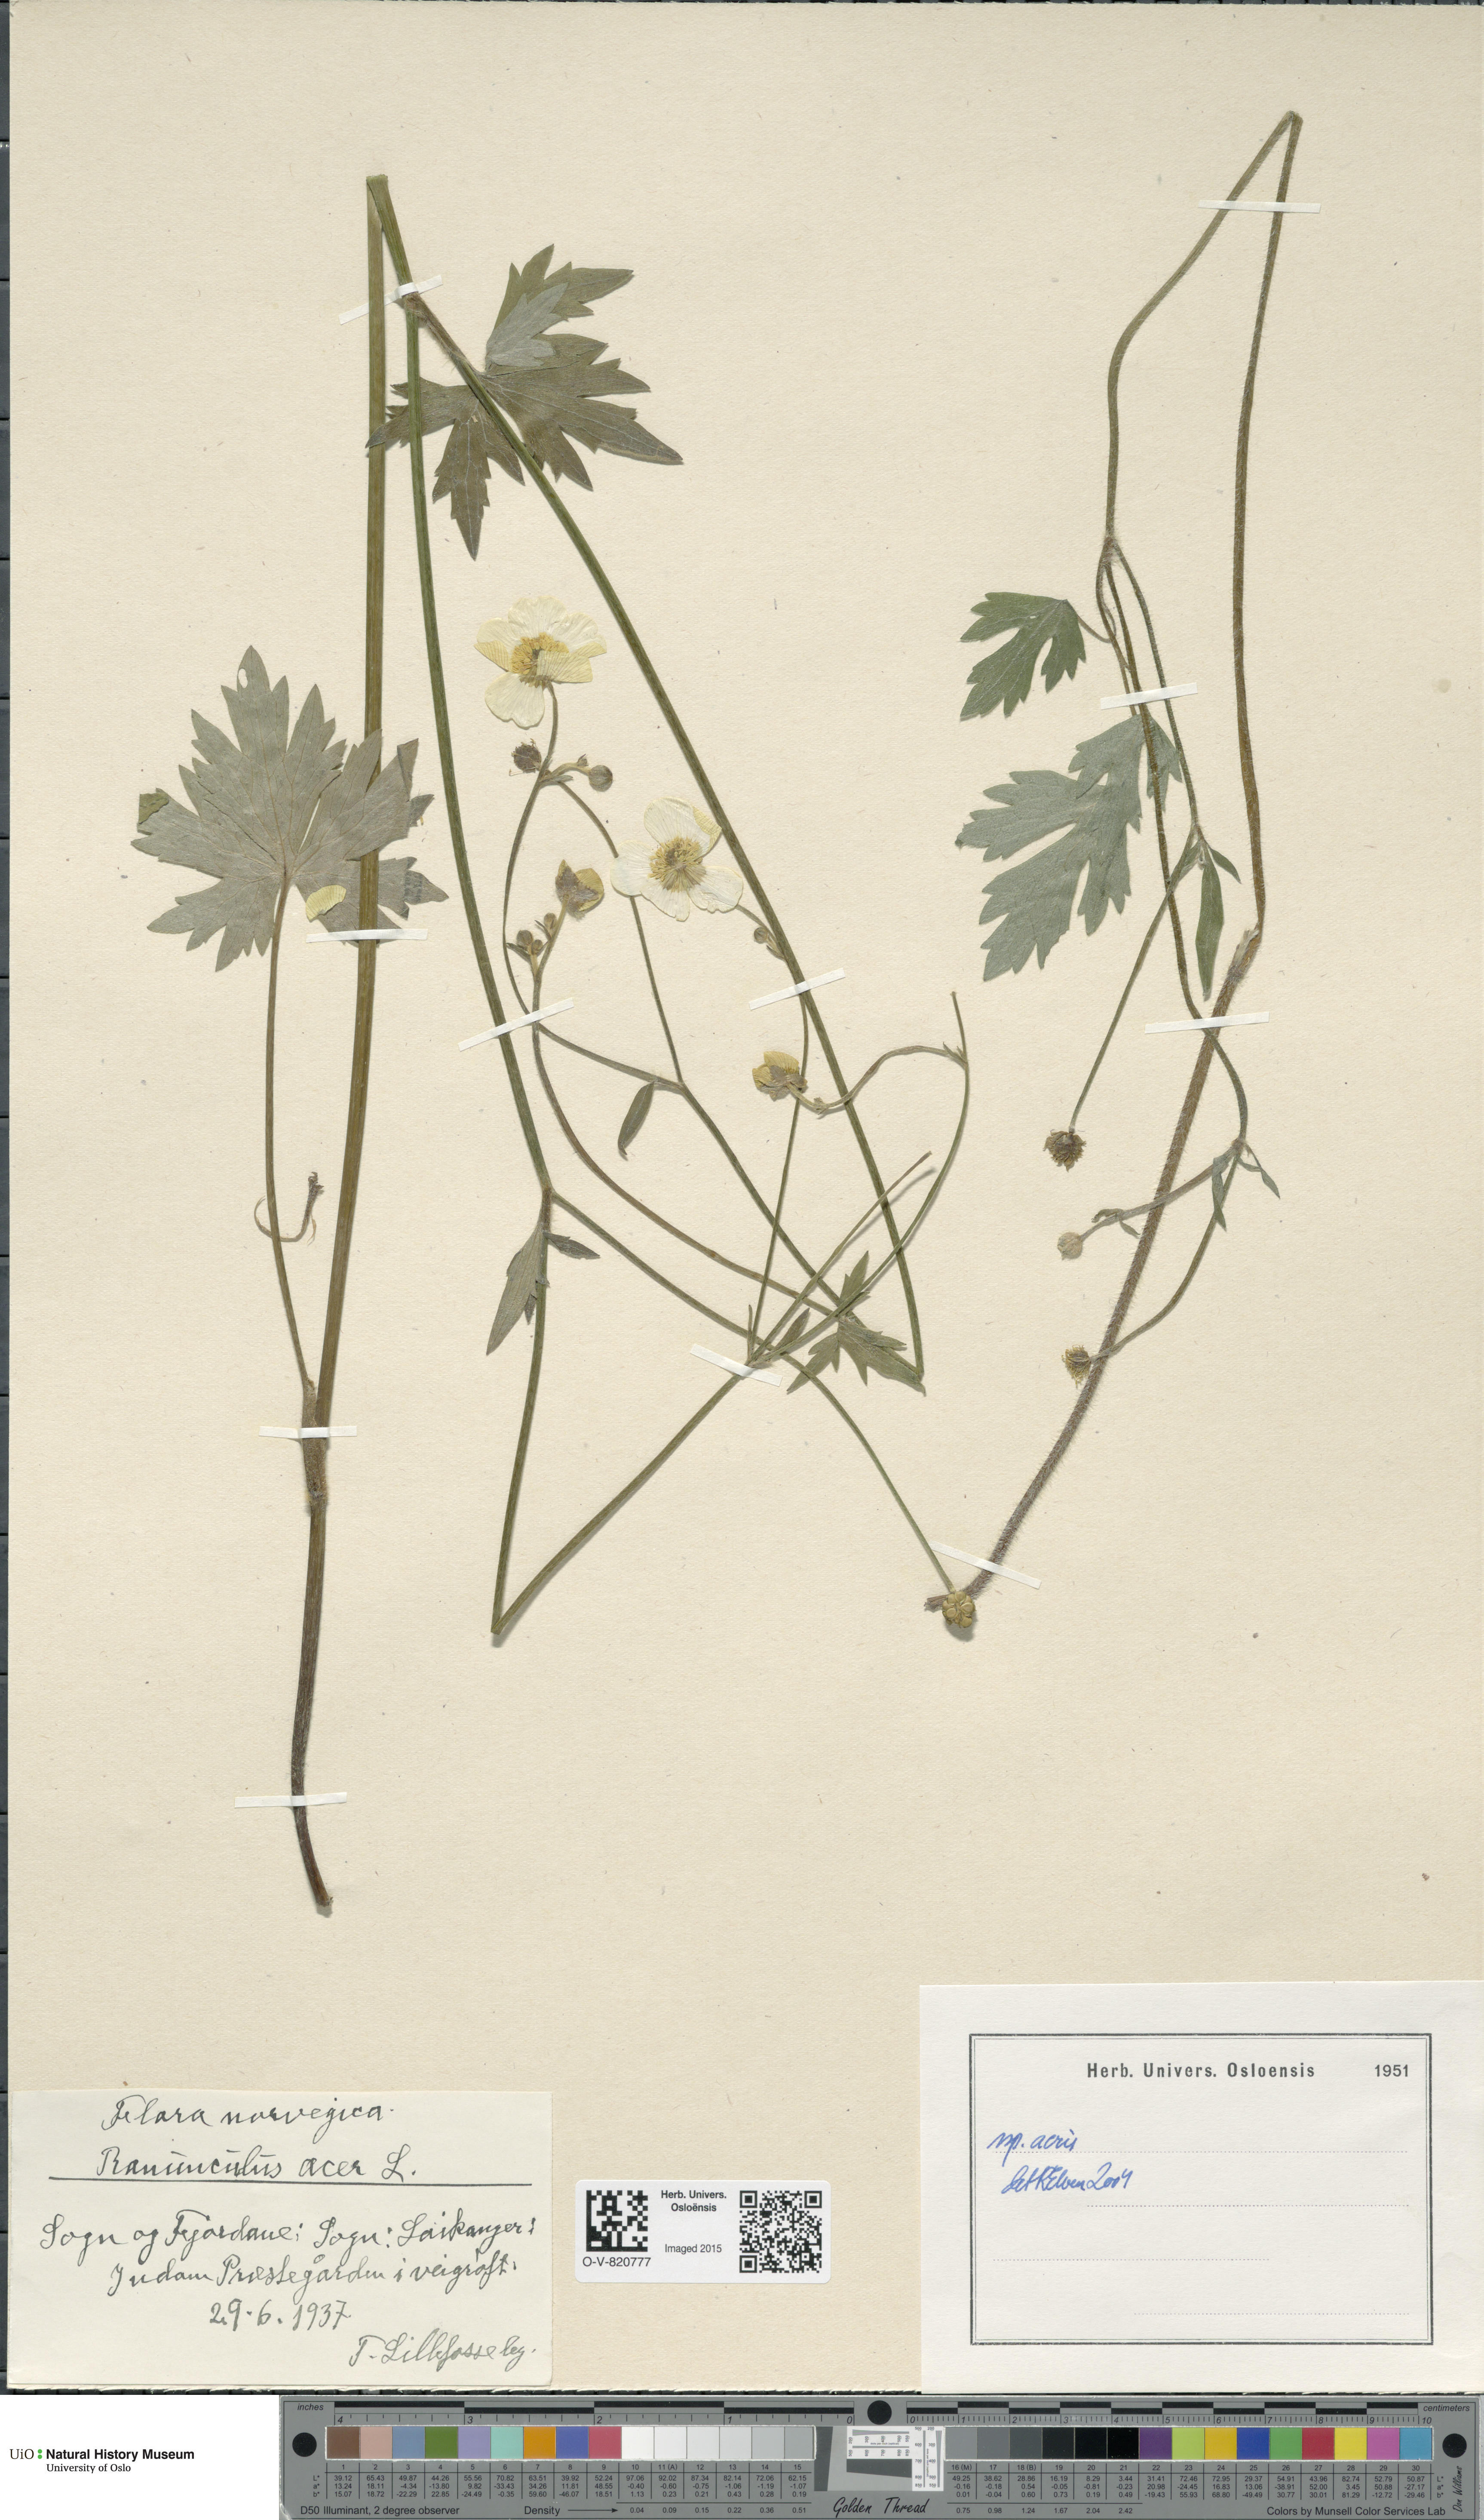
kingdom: Plantae
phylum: Tracheophyta
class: Magnoliopsida
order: Ranunculales
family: Ranunculaceae
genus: Ranunculus
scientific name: Ranunculus acris
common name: Meadow buttercup
